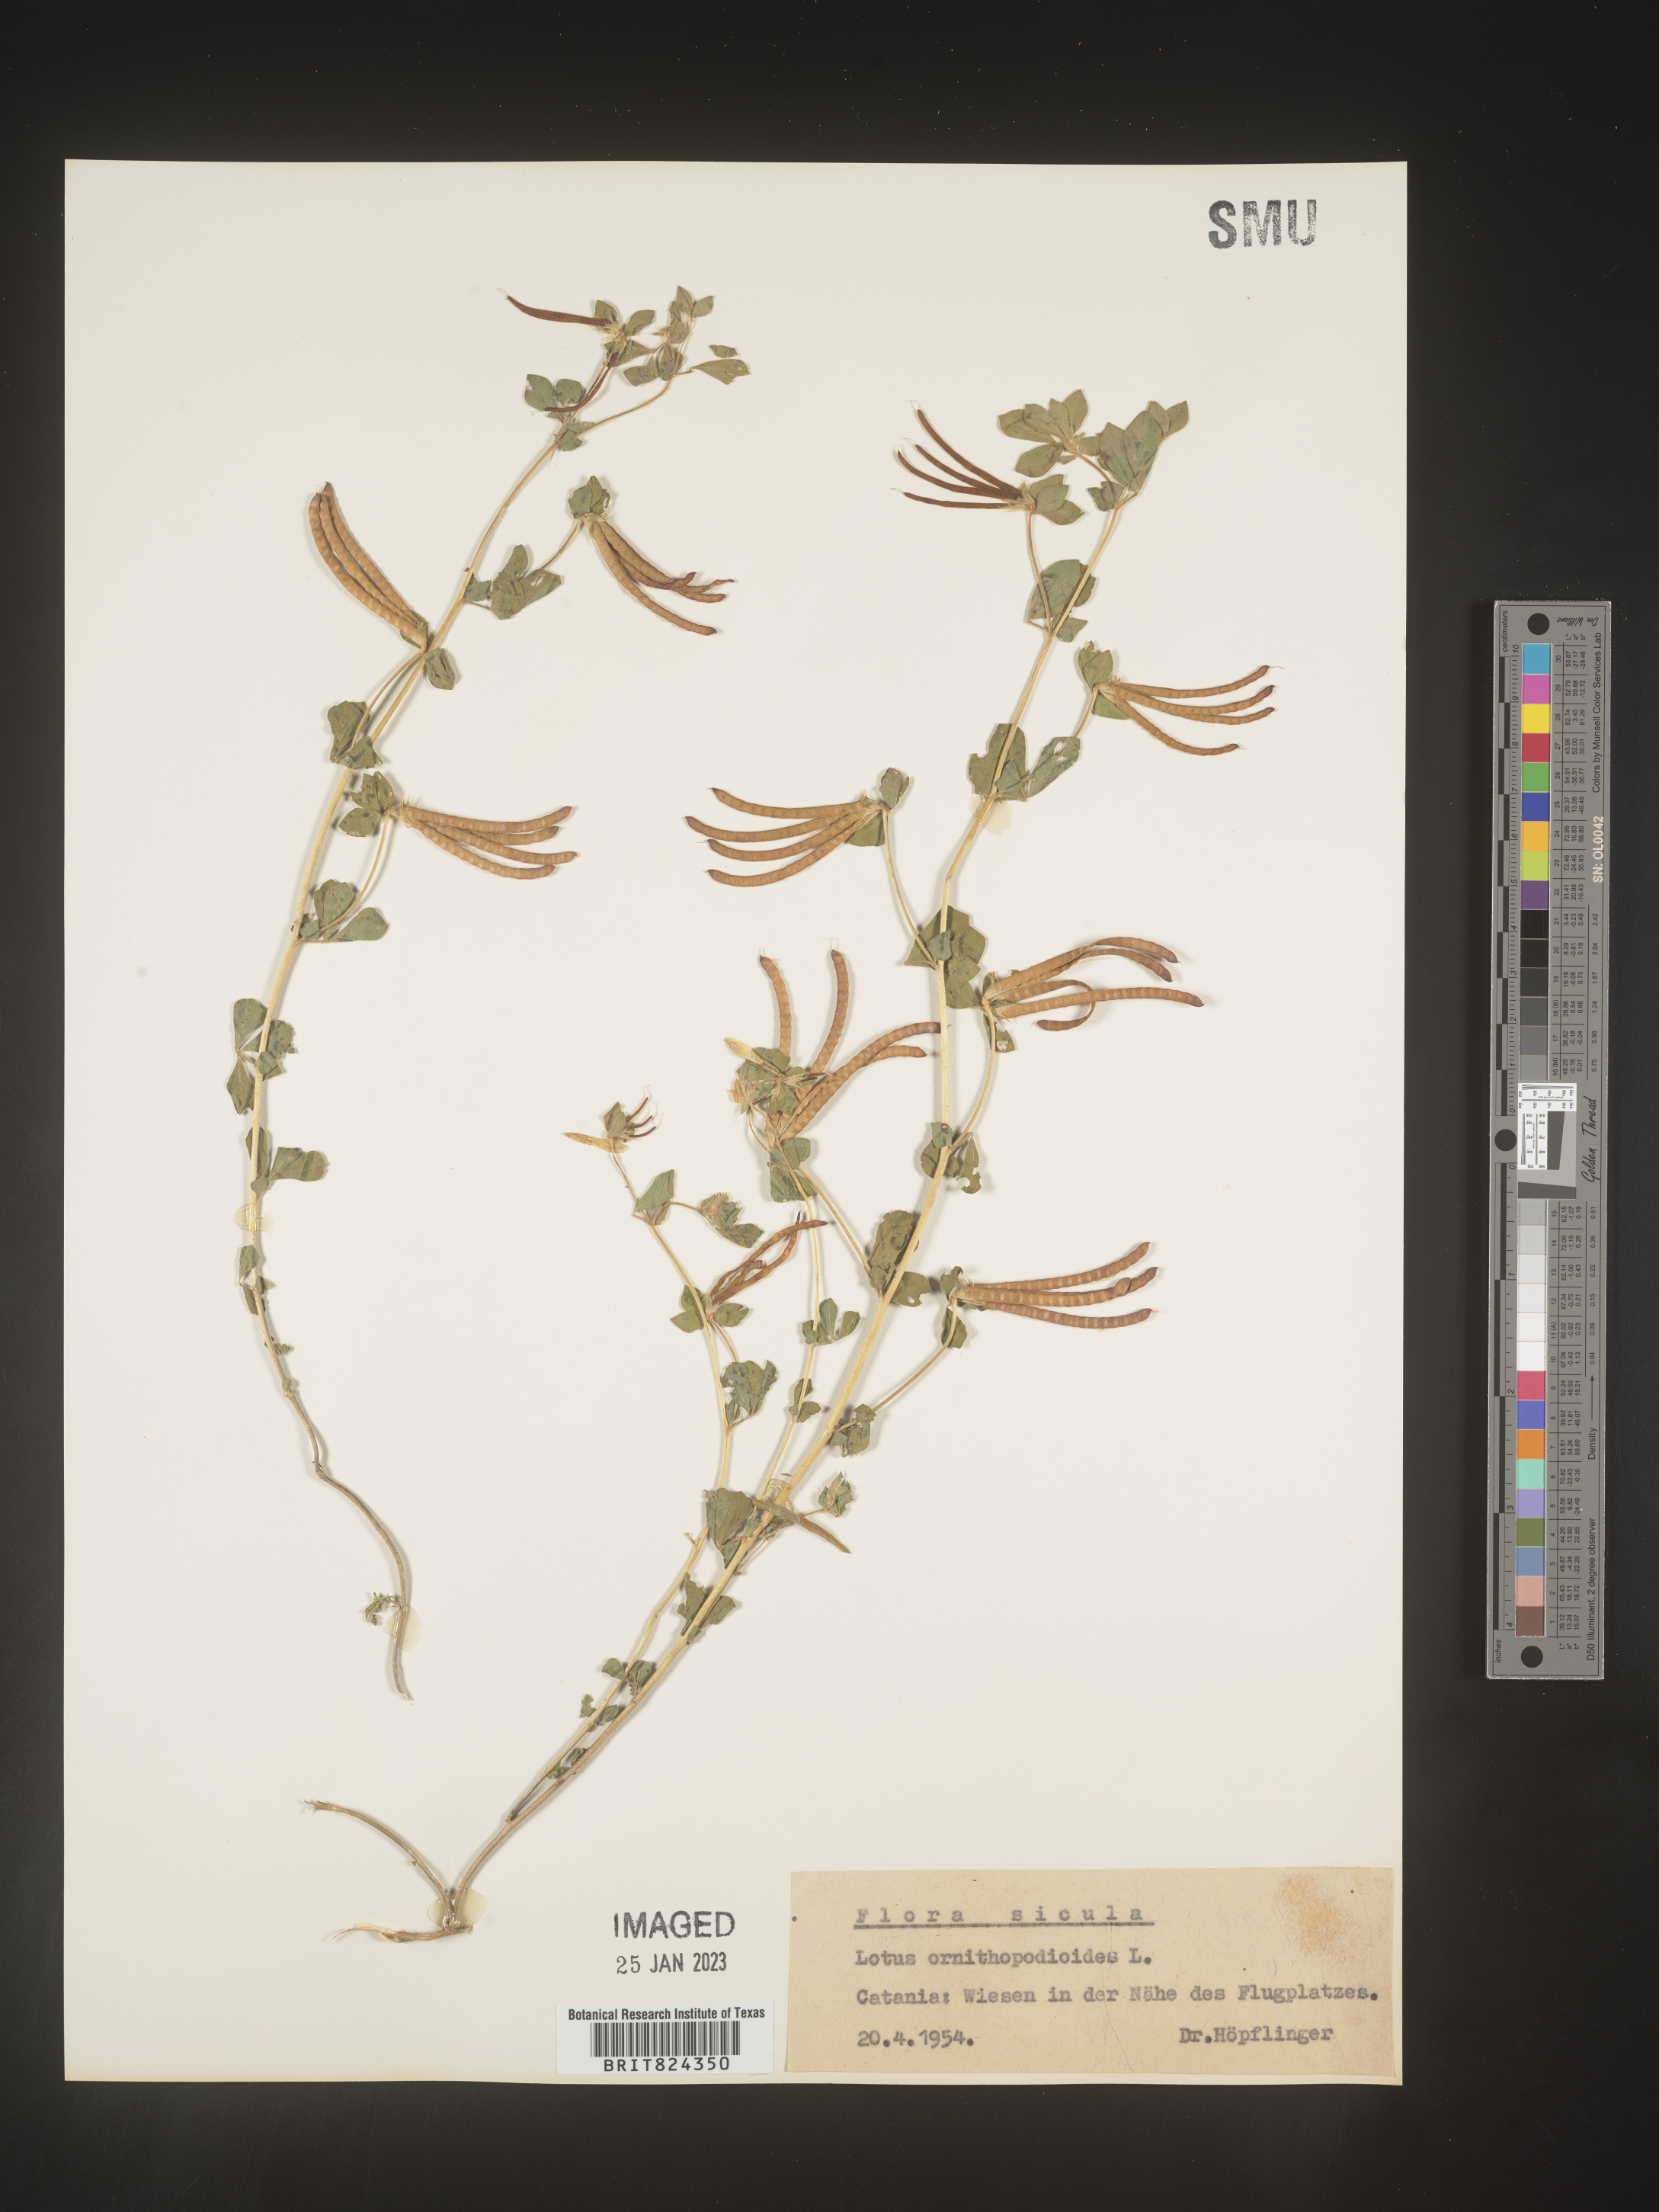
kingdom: Plantae
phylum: Tracheophyta
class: Magnoliopsida
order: Fabales
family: Fabaceae
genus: Lotus
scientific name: Lotus
